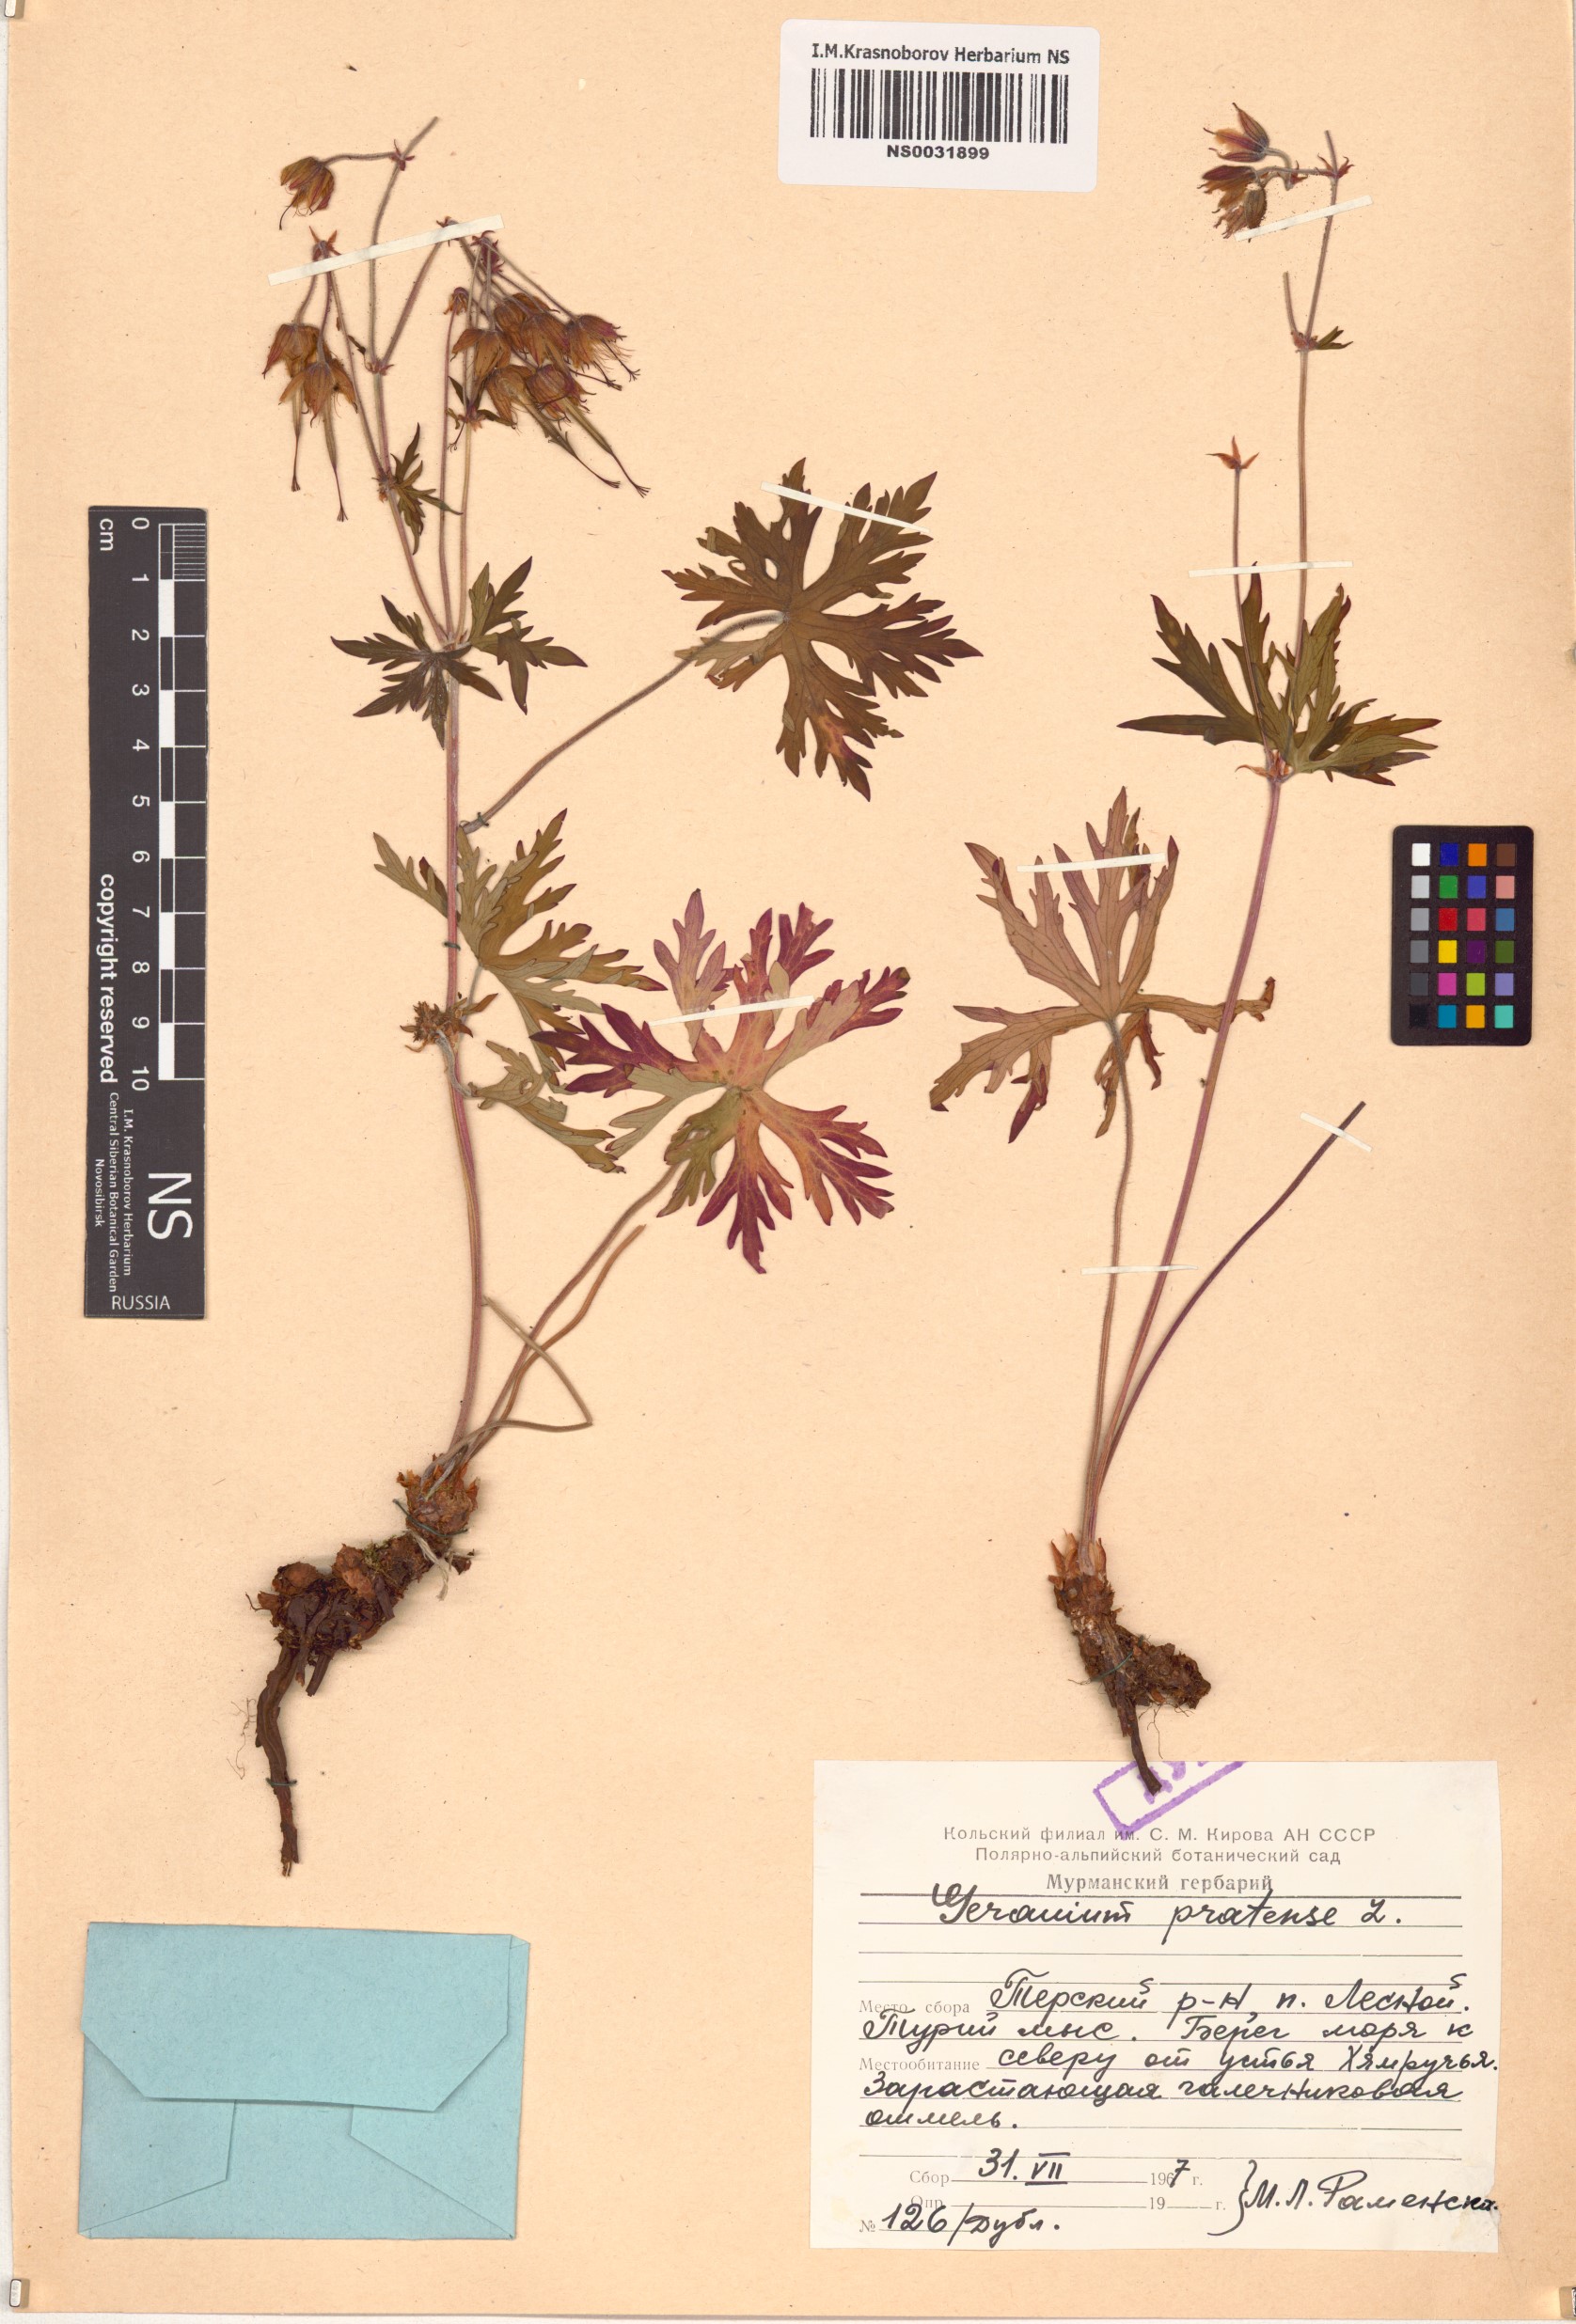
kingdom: Plantae
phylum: Tracheophyta
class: Magnoliopsida
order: Geraniales
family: Geraniaceae
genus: Geranium
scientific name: Geranium pratense
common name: Meadow crane's-bill
